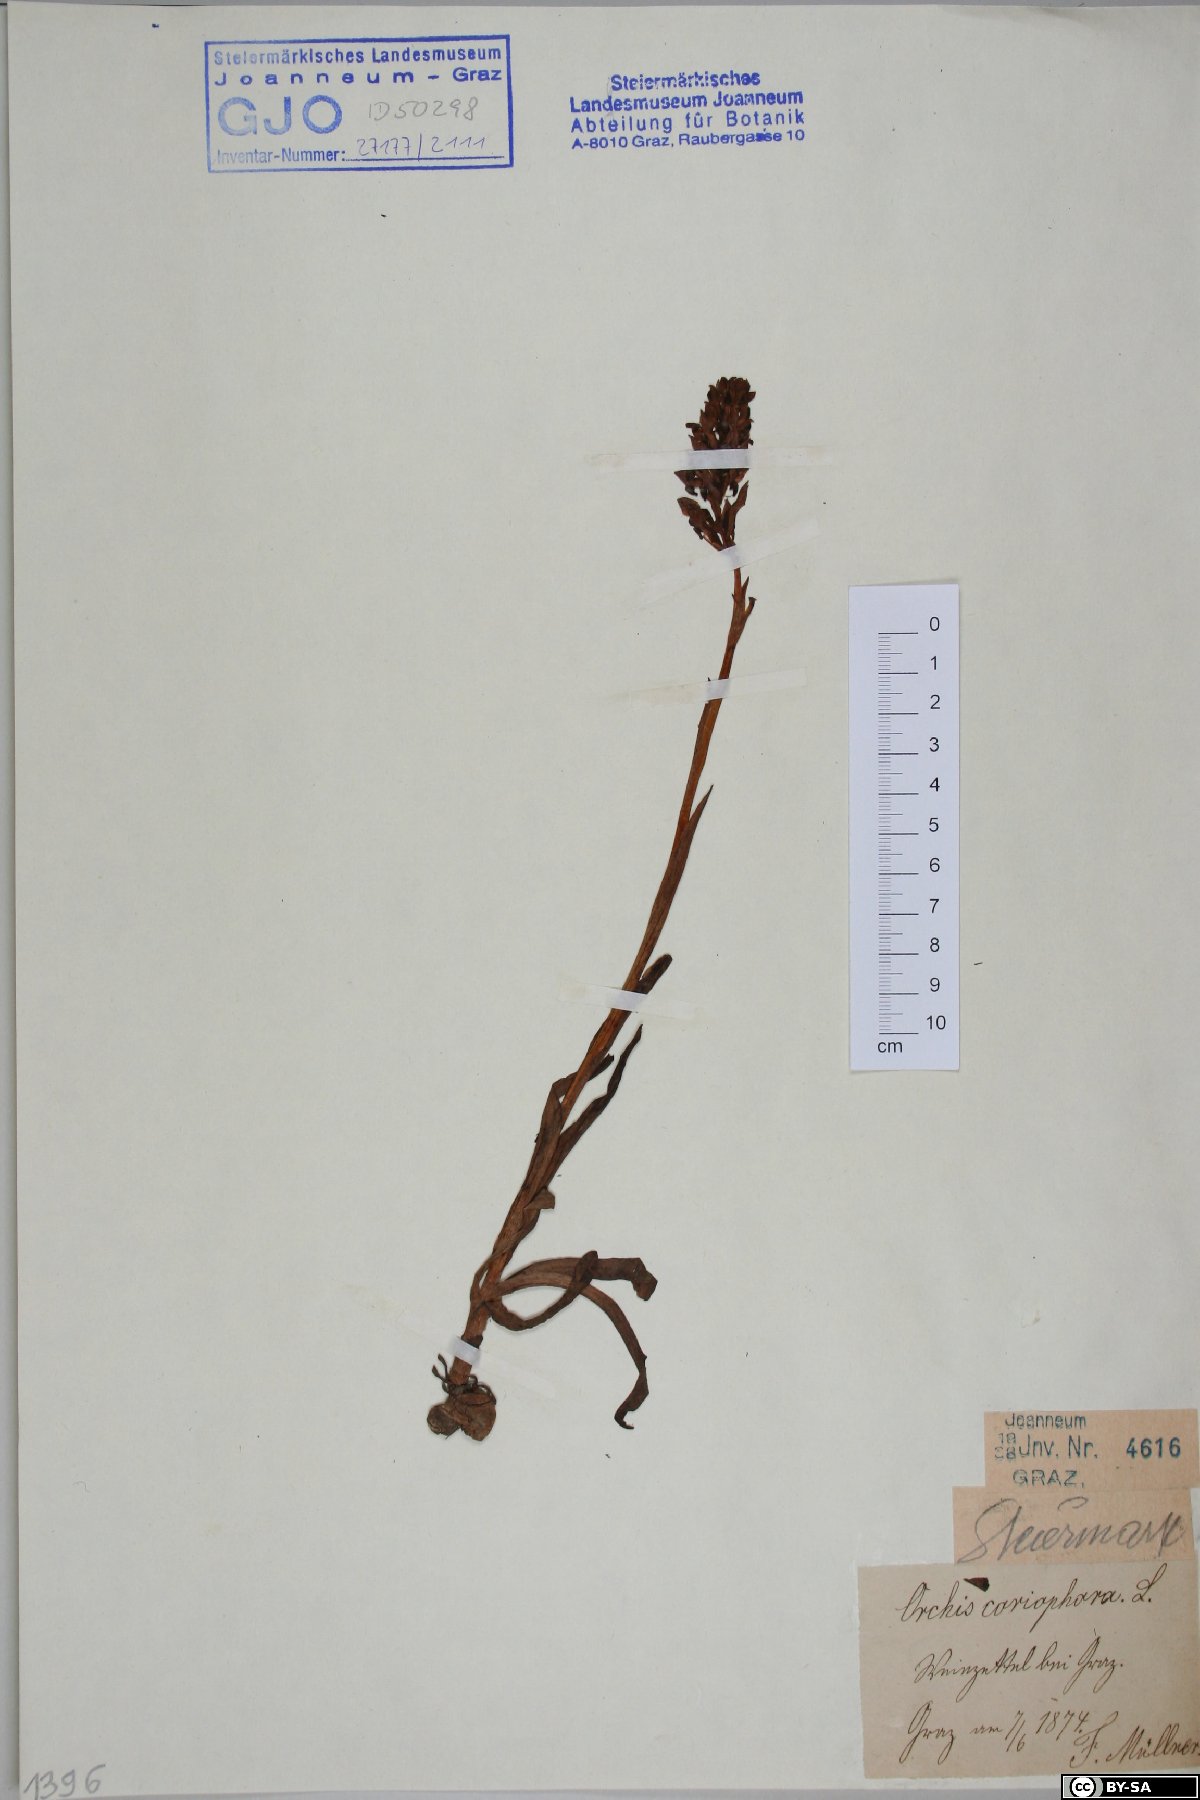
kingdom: Plantae
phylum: Tracheophyta
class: Liliopsida
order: Asparagales
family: Orchidaceae
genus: Anacamptis
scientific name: Anacamptis coriophora
